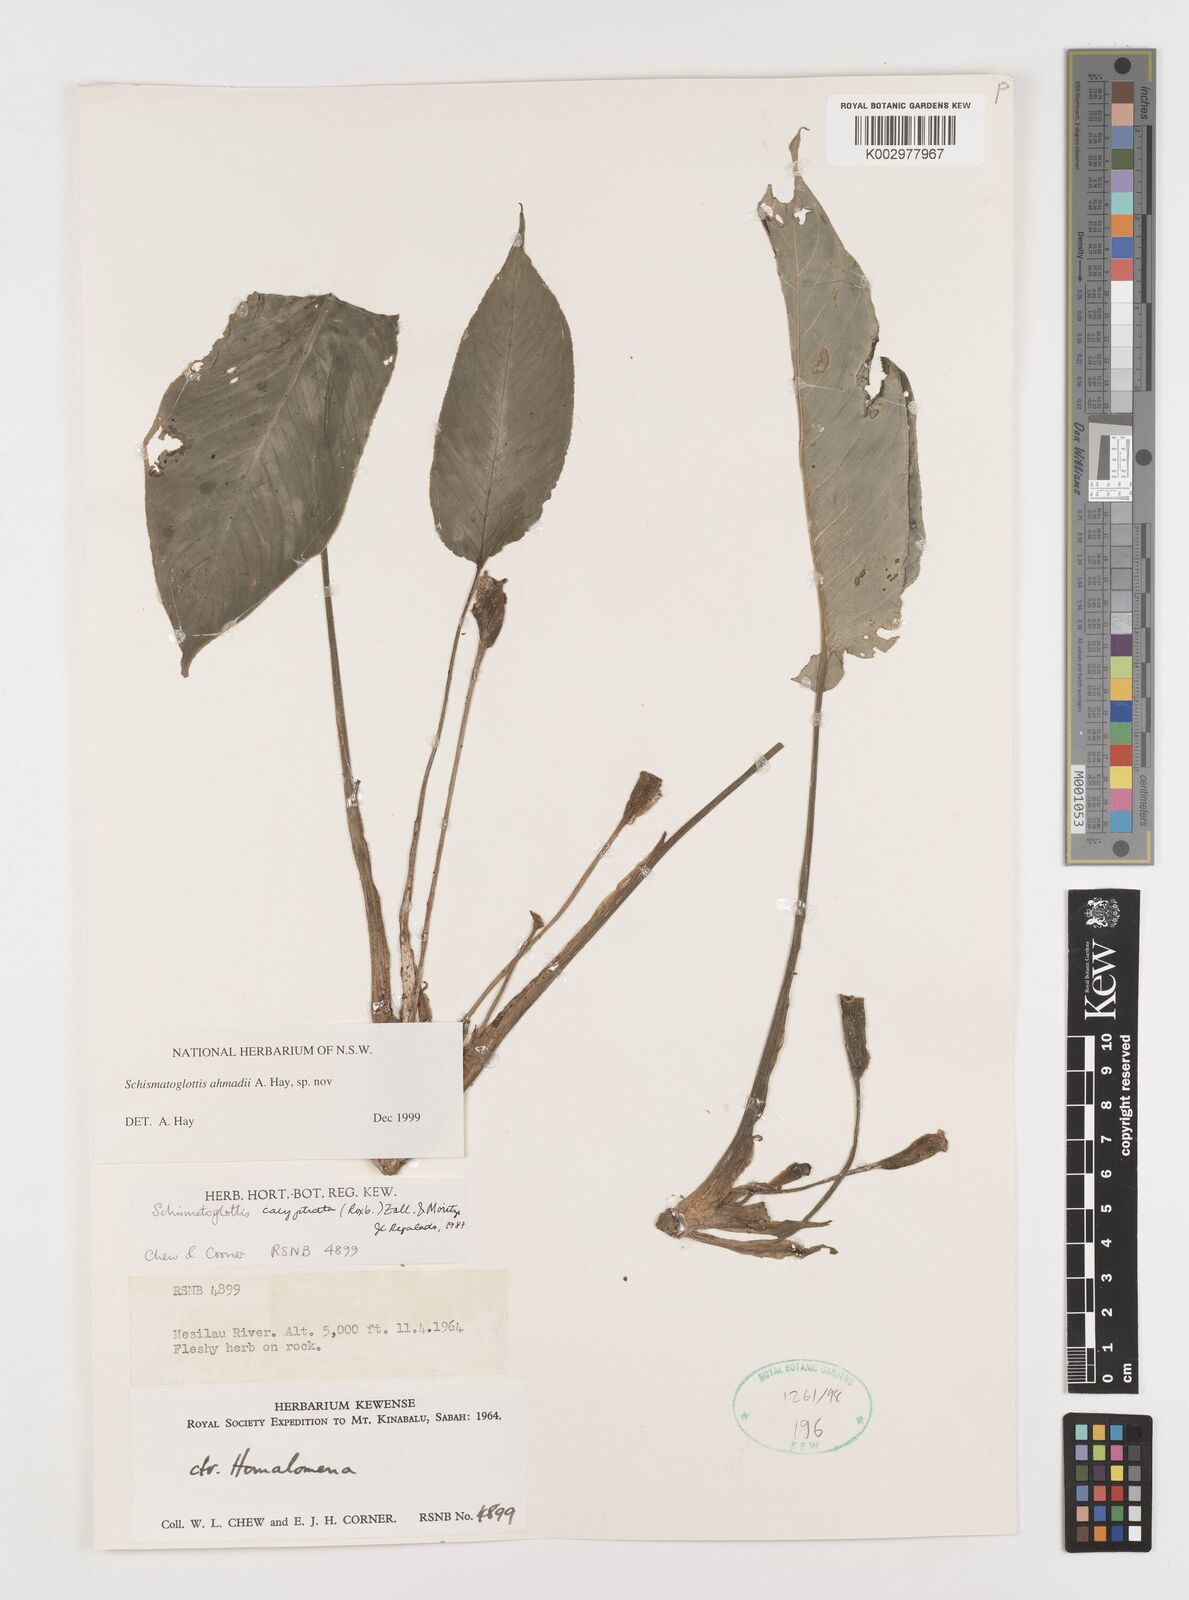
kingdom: Plantae
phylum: Tracheophyta
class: Liliopsida
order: Alismatales
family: Araceae
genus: Schismatoglottis
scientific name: Schismatoglottis ahmadii
